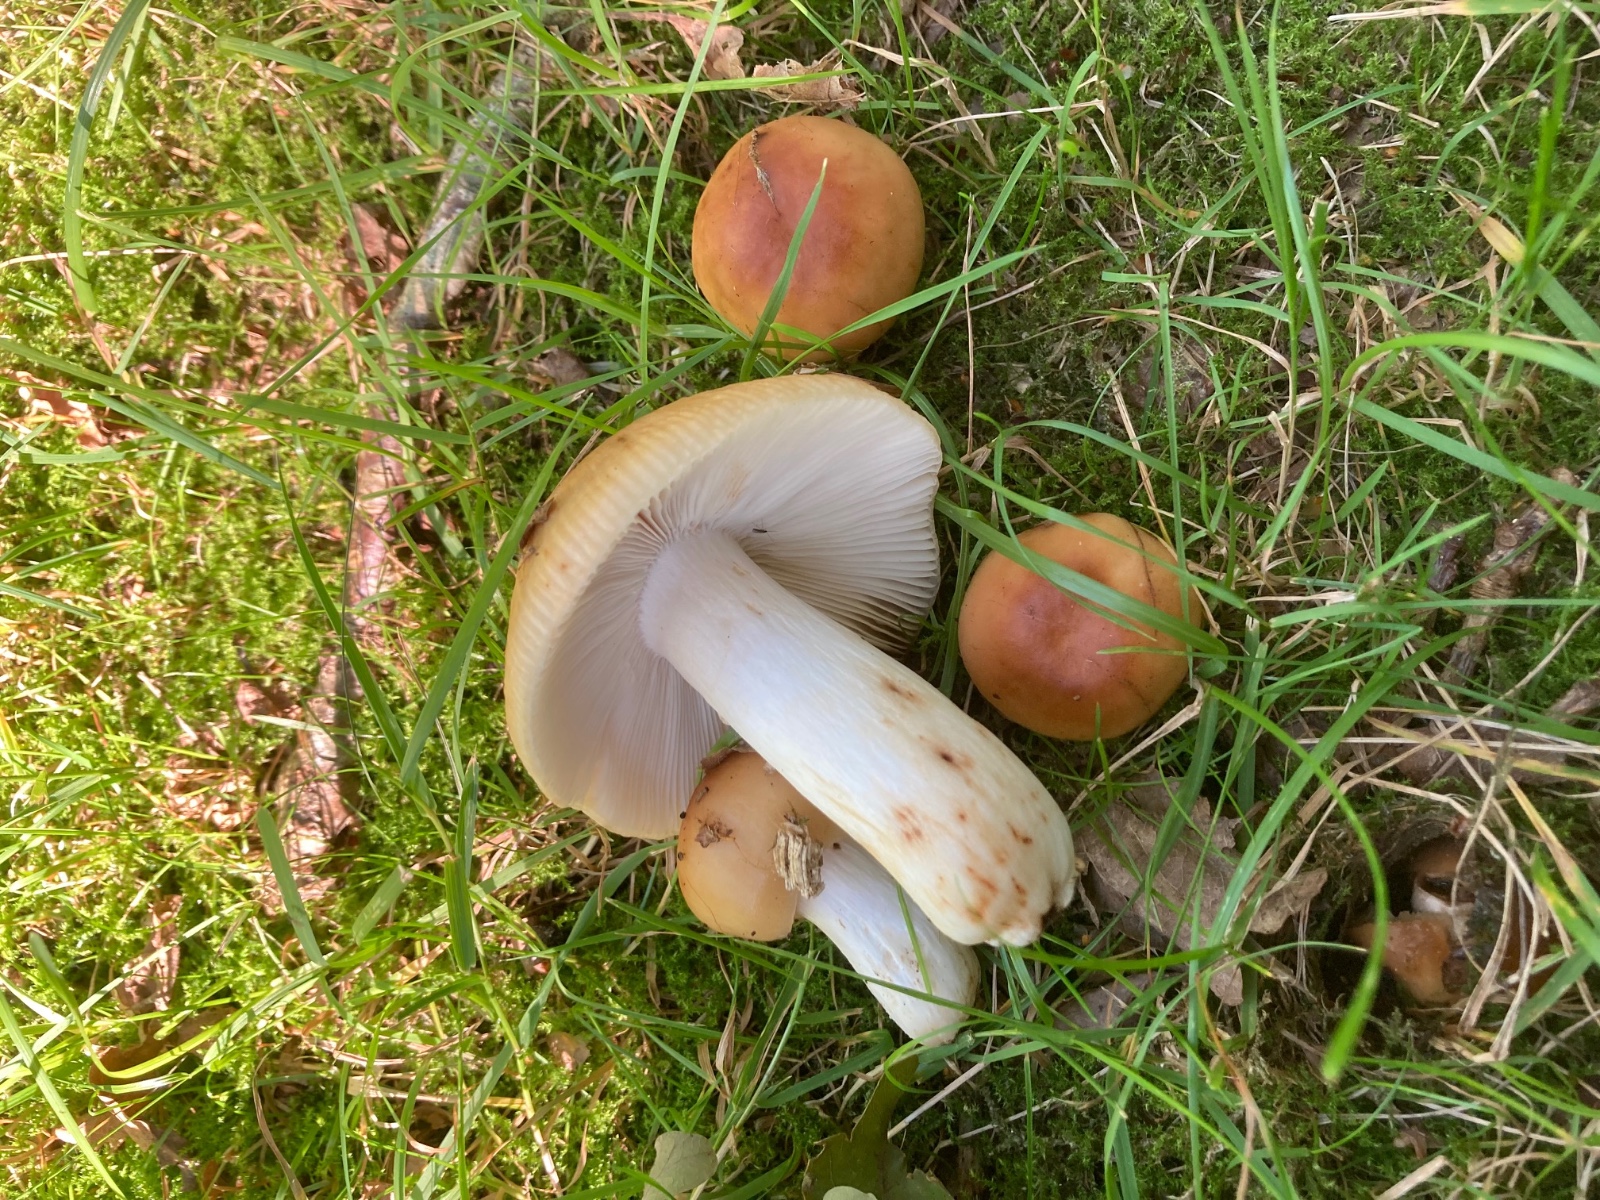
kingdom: Fungi
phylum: Basidiomycota
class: Agaricomycetes
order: Russulales
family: Russulaceae
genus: Russula
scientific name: Russula grata
